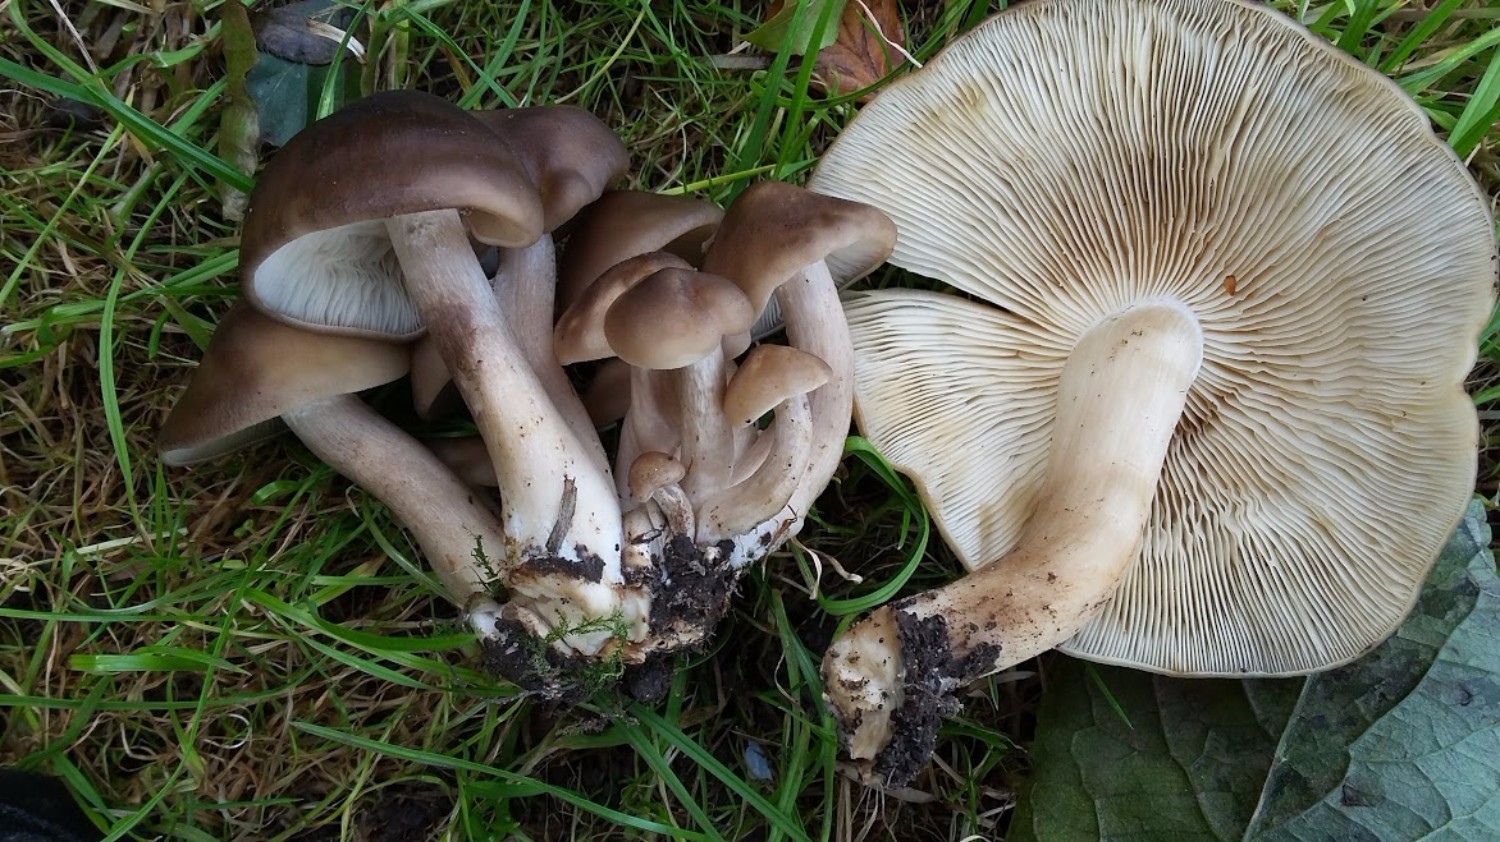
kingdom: Fungi
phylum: Basidiomycota
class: Agaricomycetes
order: Agaricales
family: Lyophyllaceae
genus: Lyophyllum
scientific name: Lyophyllum decastes
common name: Clustered domecap
